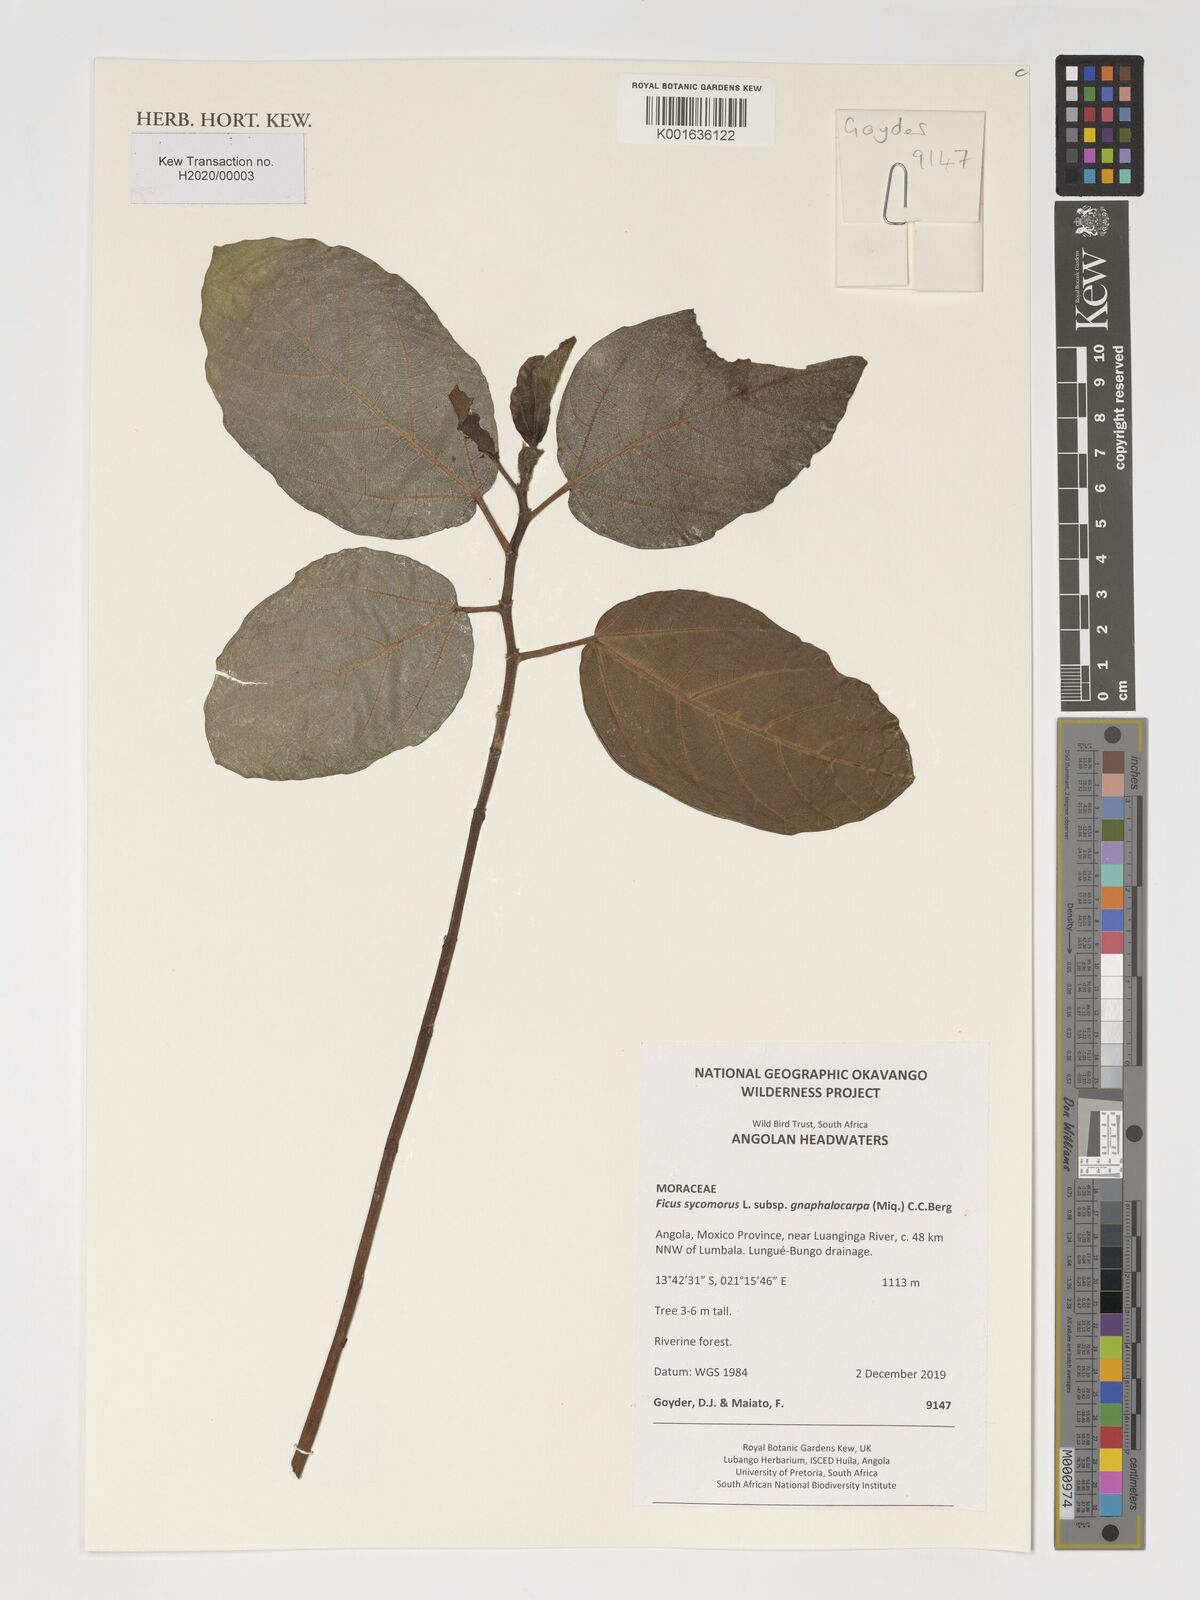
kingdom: Plantae
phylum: Tracheophyta
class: Magnoliopsida
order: Rosales
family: Moraceae
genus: Ficus
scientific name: Ficus sycomorus
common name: Sycomore
